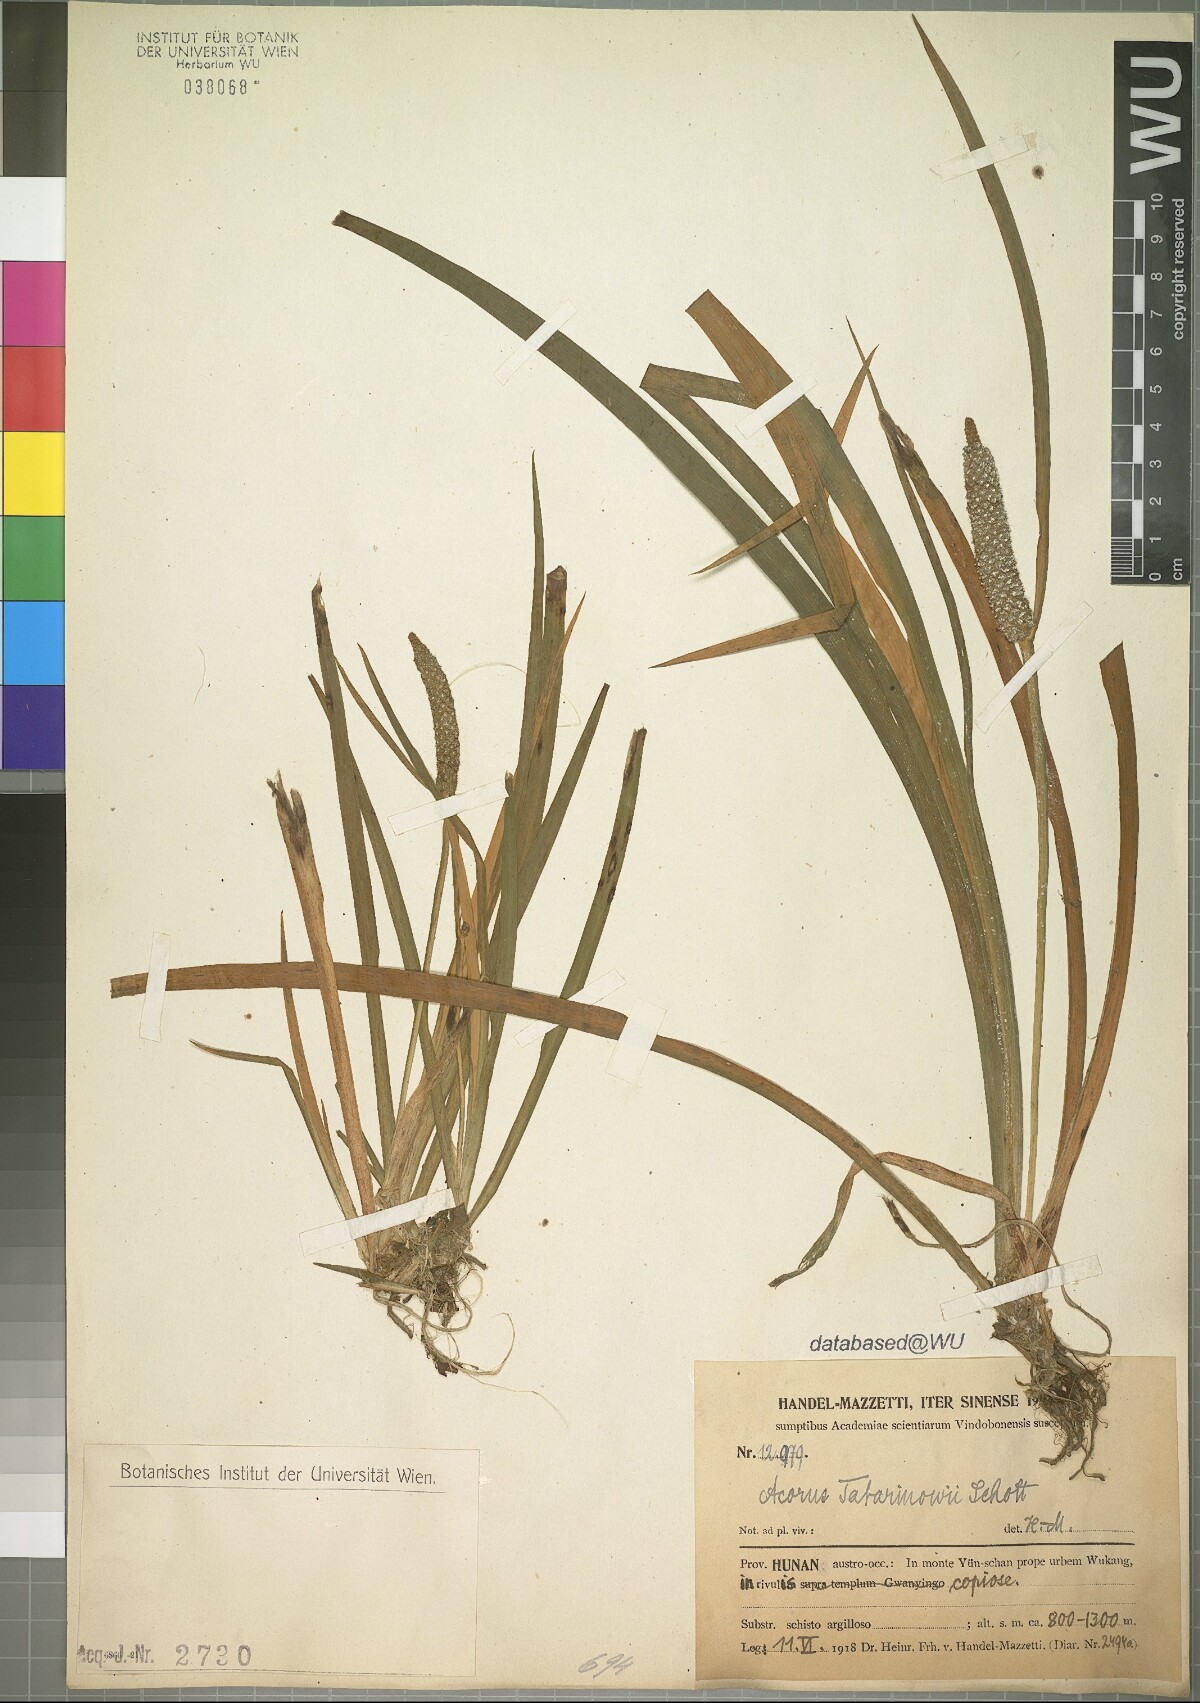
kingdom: Plantae
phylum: Tracheophyta
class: Liliopsida
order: Acorales
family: Acoraceae
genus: Acorus
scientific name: Acorus calamus
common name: Sweet-flag
